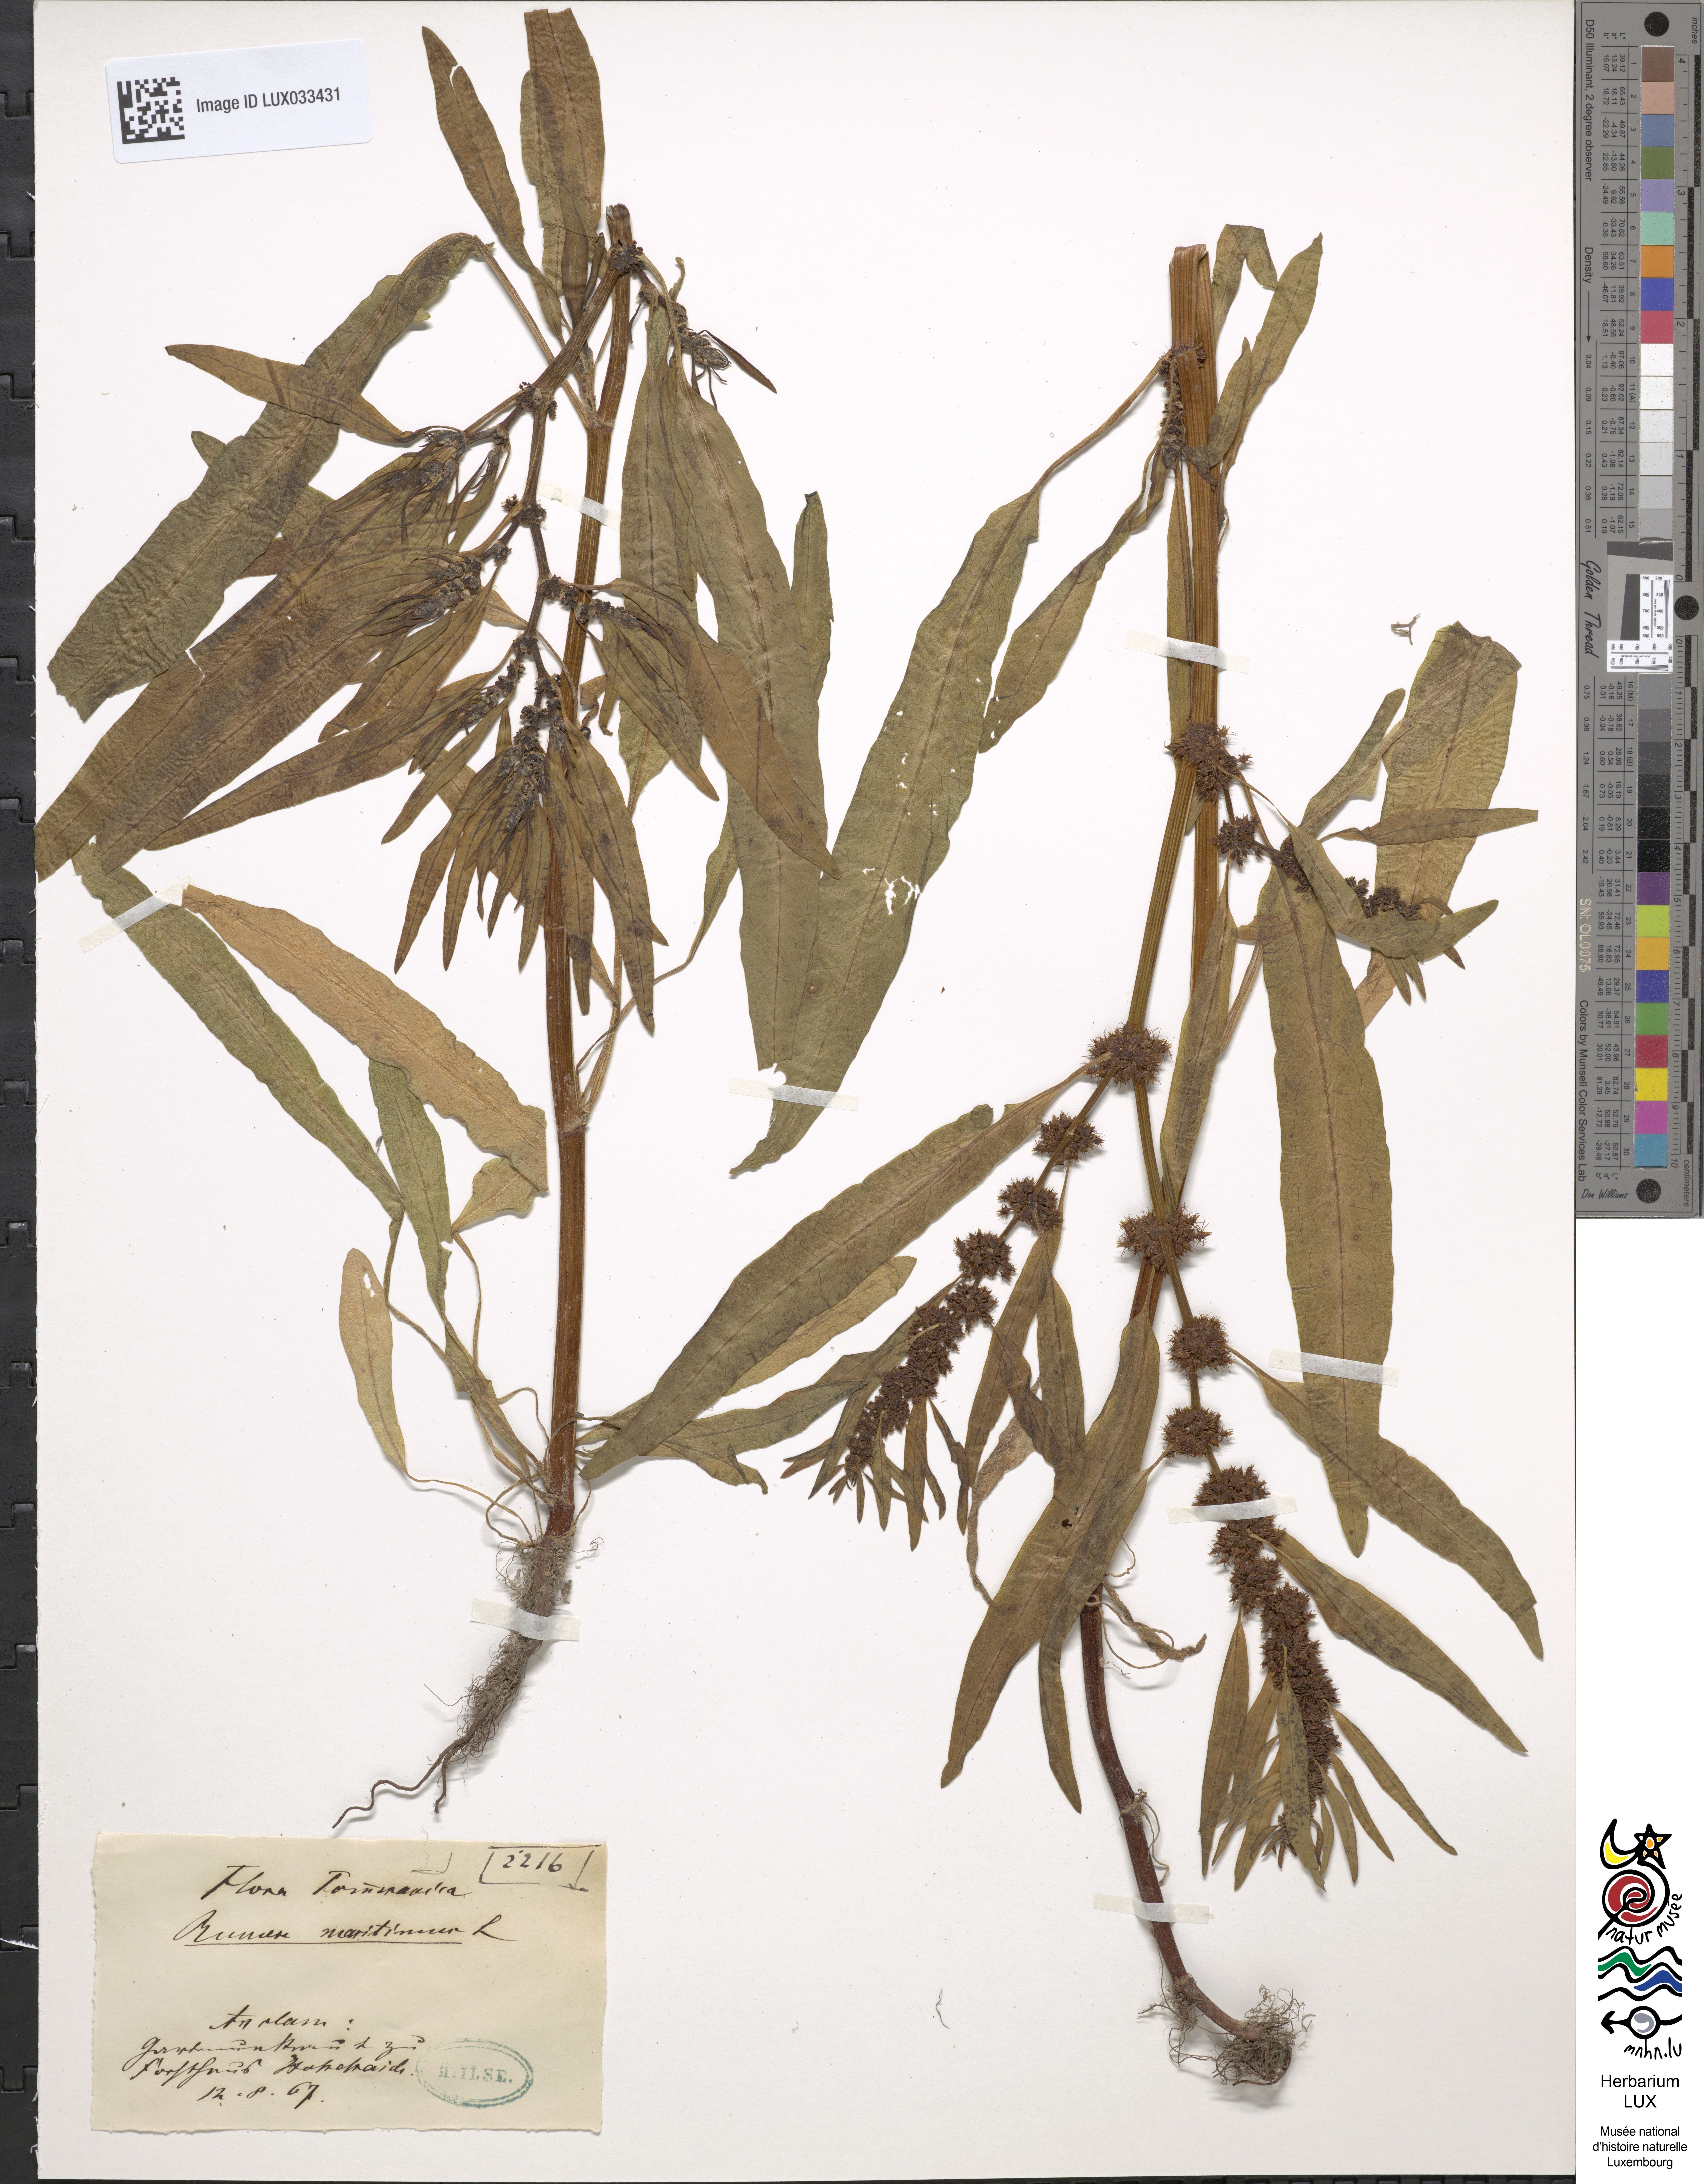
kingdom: Plantae
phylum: Tracheophyta
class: Magnoliopsida
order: Caryophyllales
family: Polygonaceae
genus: Rumex
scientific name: Rumex maritimus
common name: Golden dock
